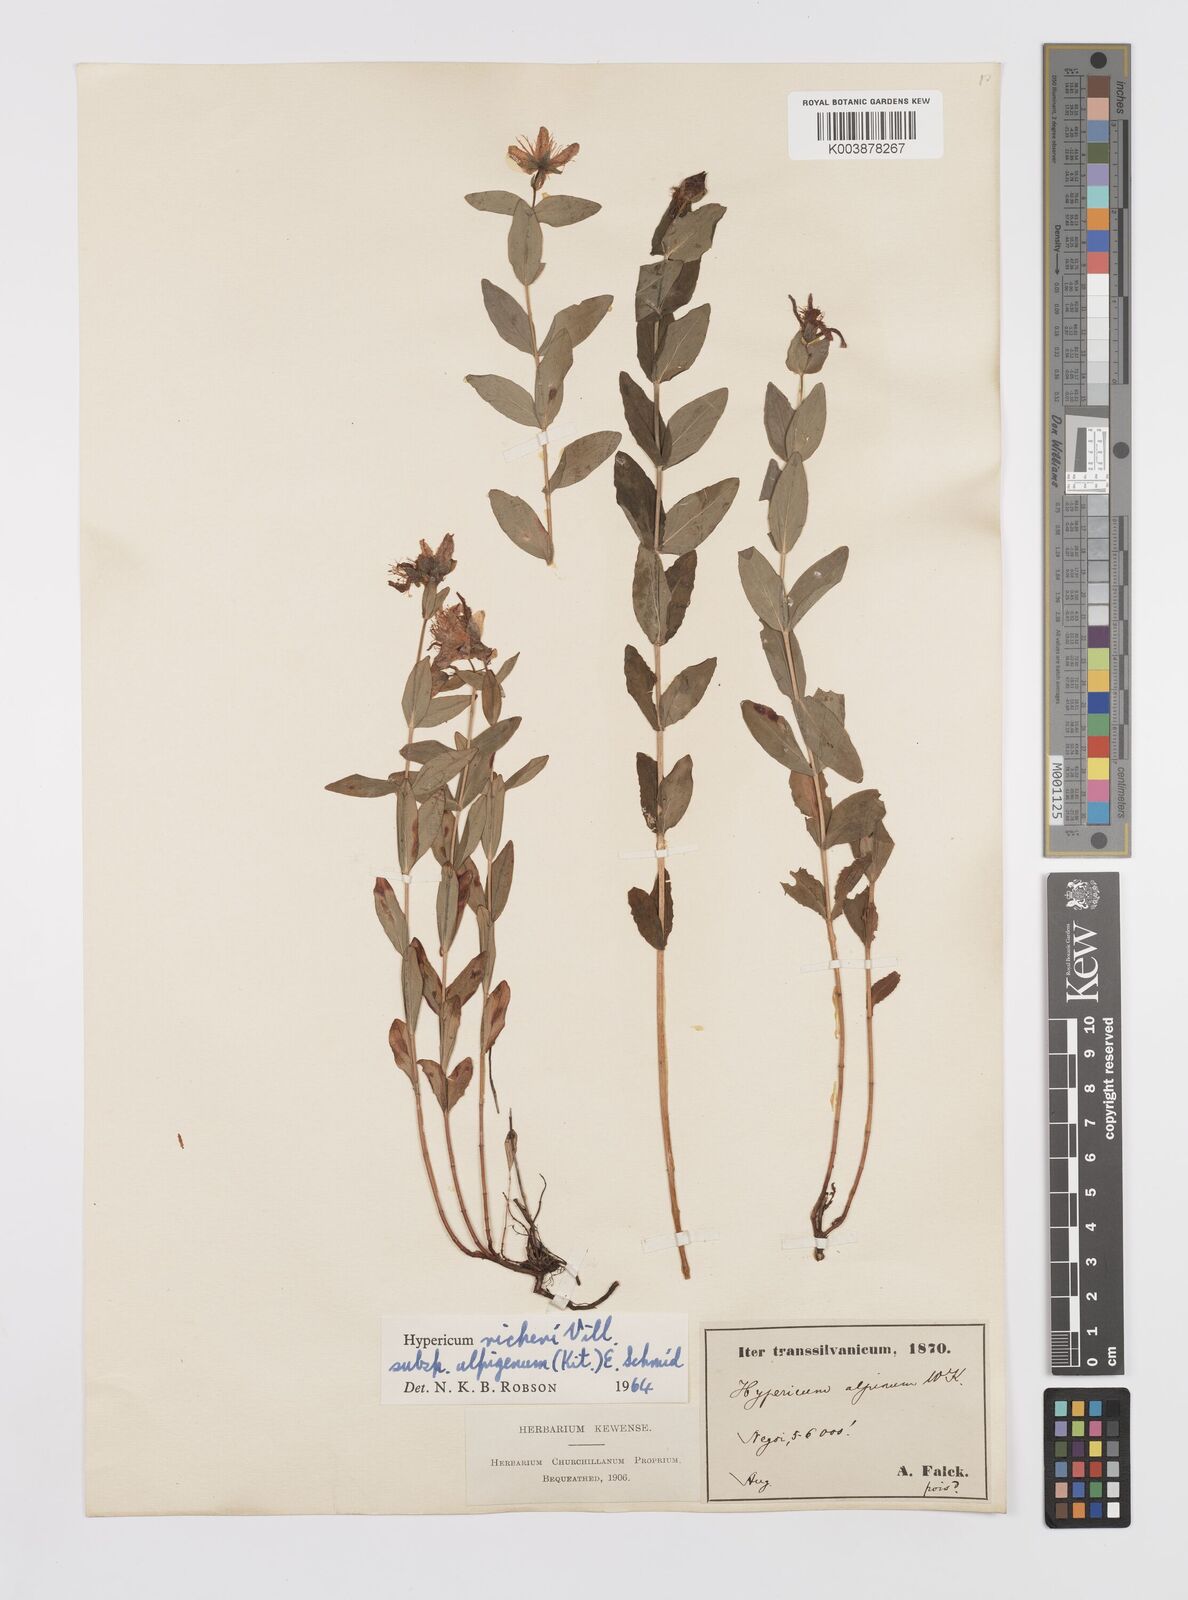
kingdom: Plantae
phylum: Tracheophyta
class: Magnoliopsida
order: Malpighiales
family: Hypericaceae
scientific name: Hypericaceae
